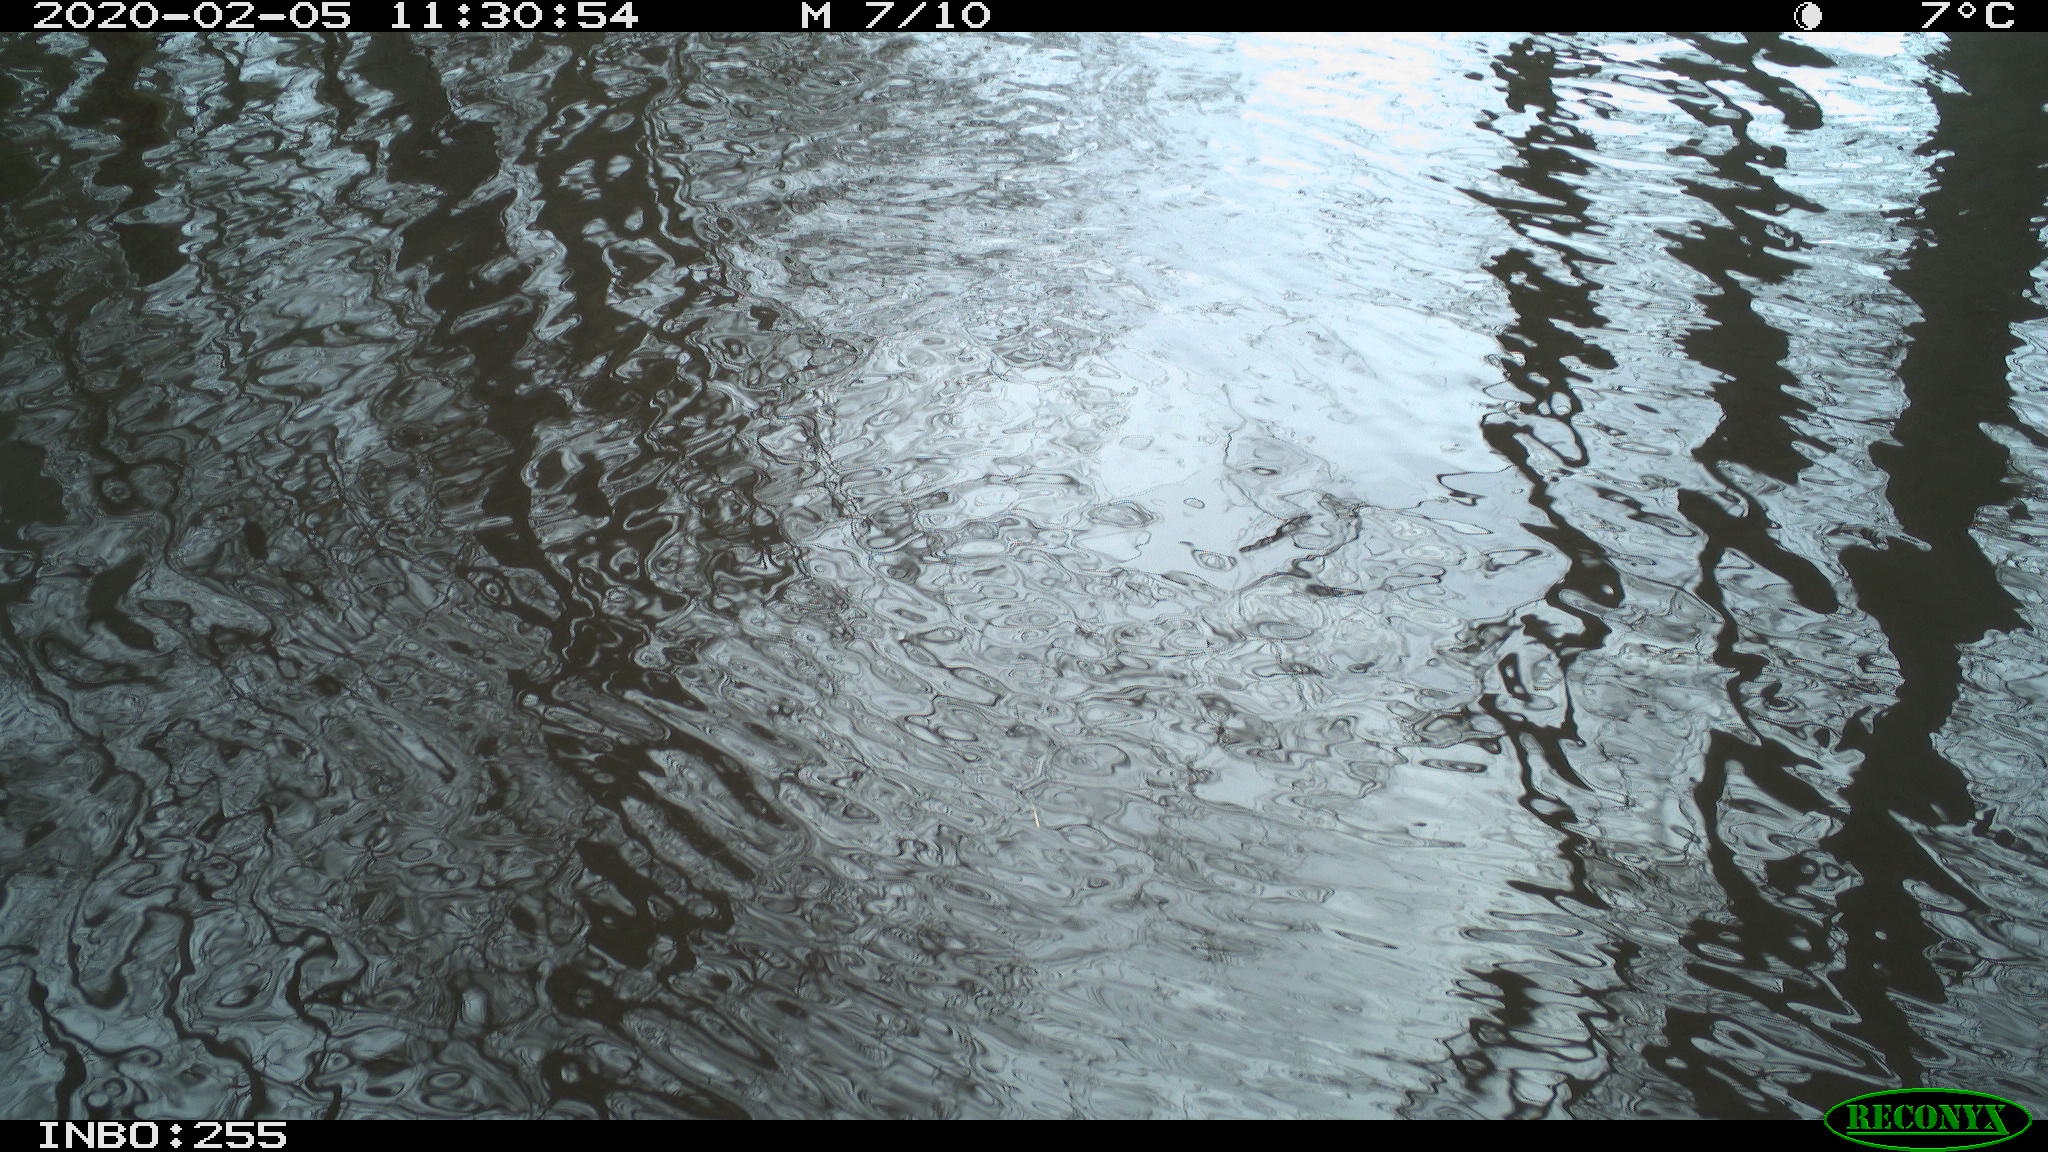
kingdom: Animalia
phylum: Chordata
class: Aves
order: Gruiformes
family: Rallidae
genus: Fulica
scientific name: Fulica atra
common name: Eurasian coot
